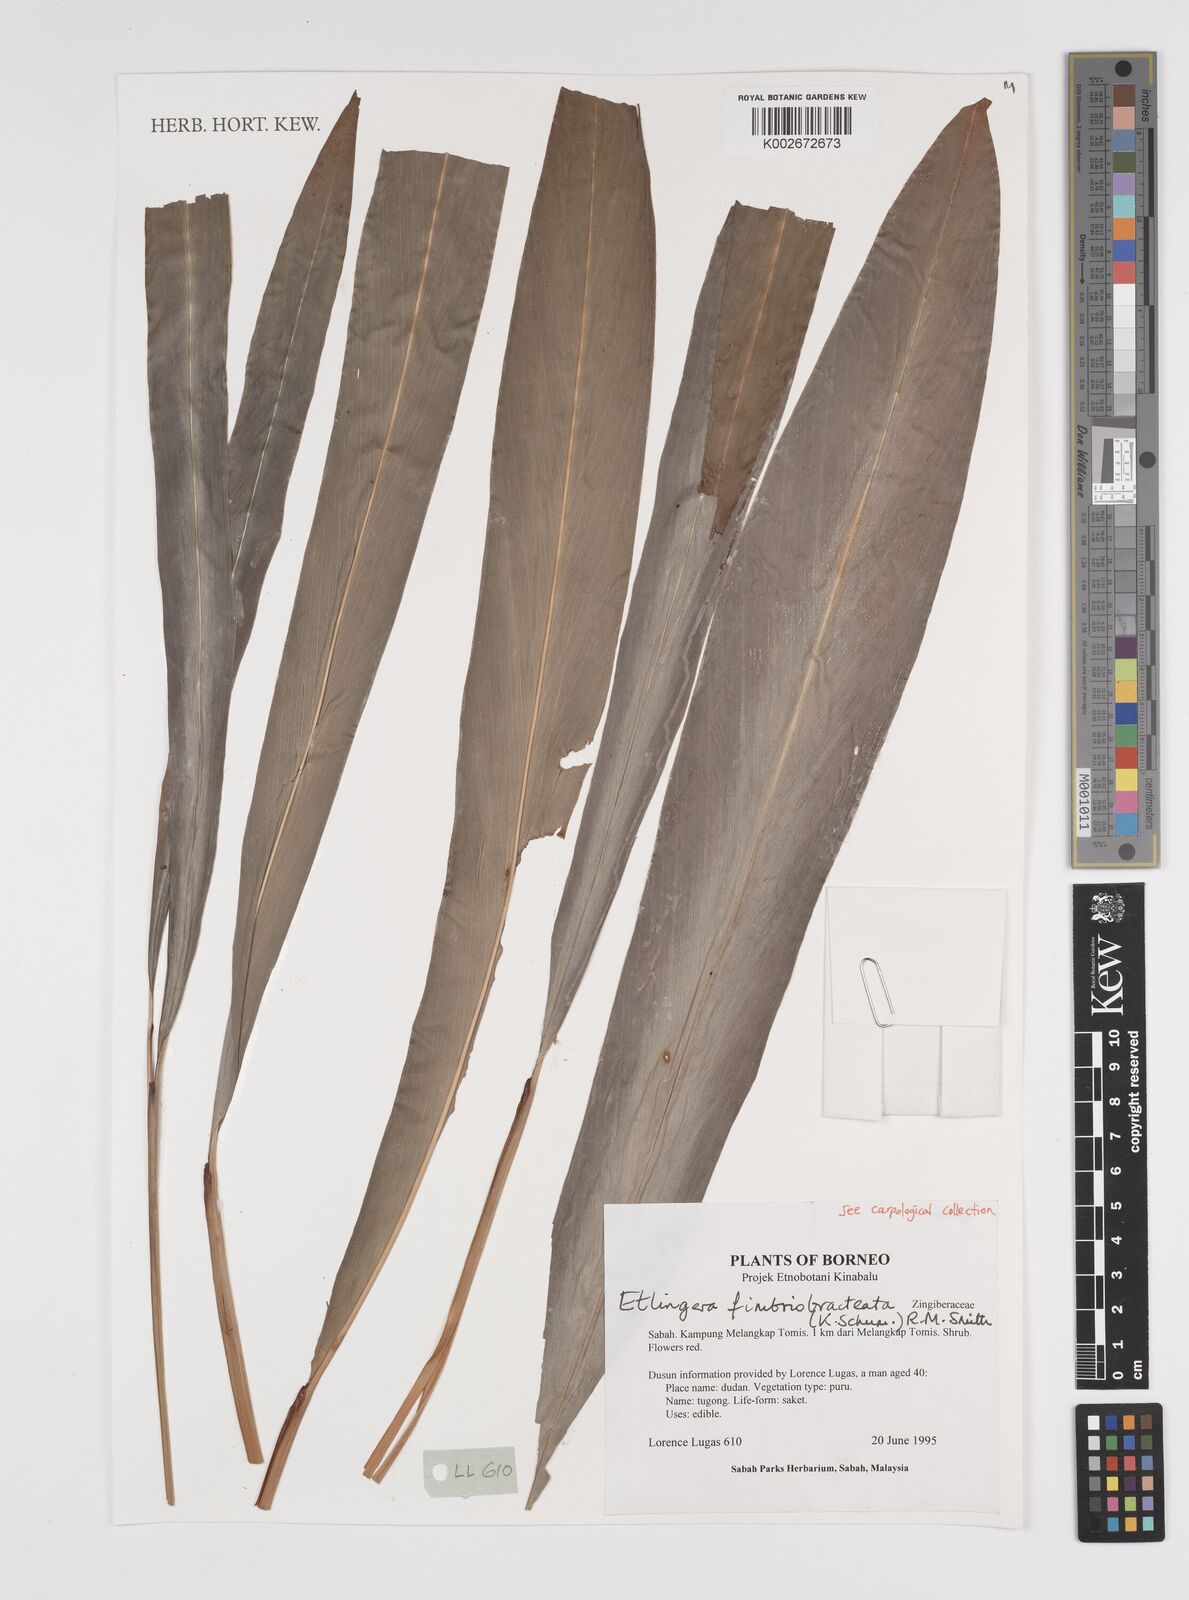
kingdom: Plantae
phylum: Tracheophyta
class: Liliopsida
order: Zingiberales
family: Zingiberaceae
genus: Etlingera
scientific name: Etlingera fimbriobracteata
